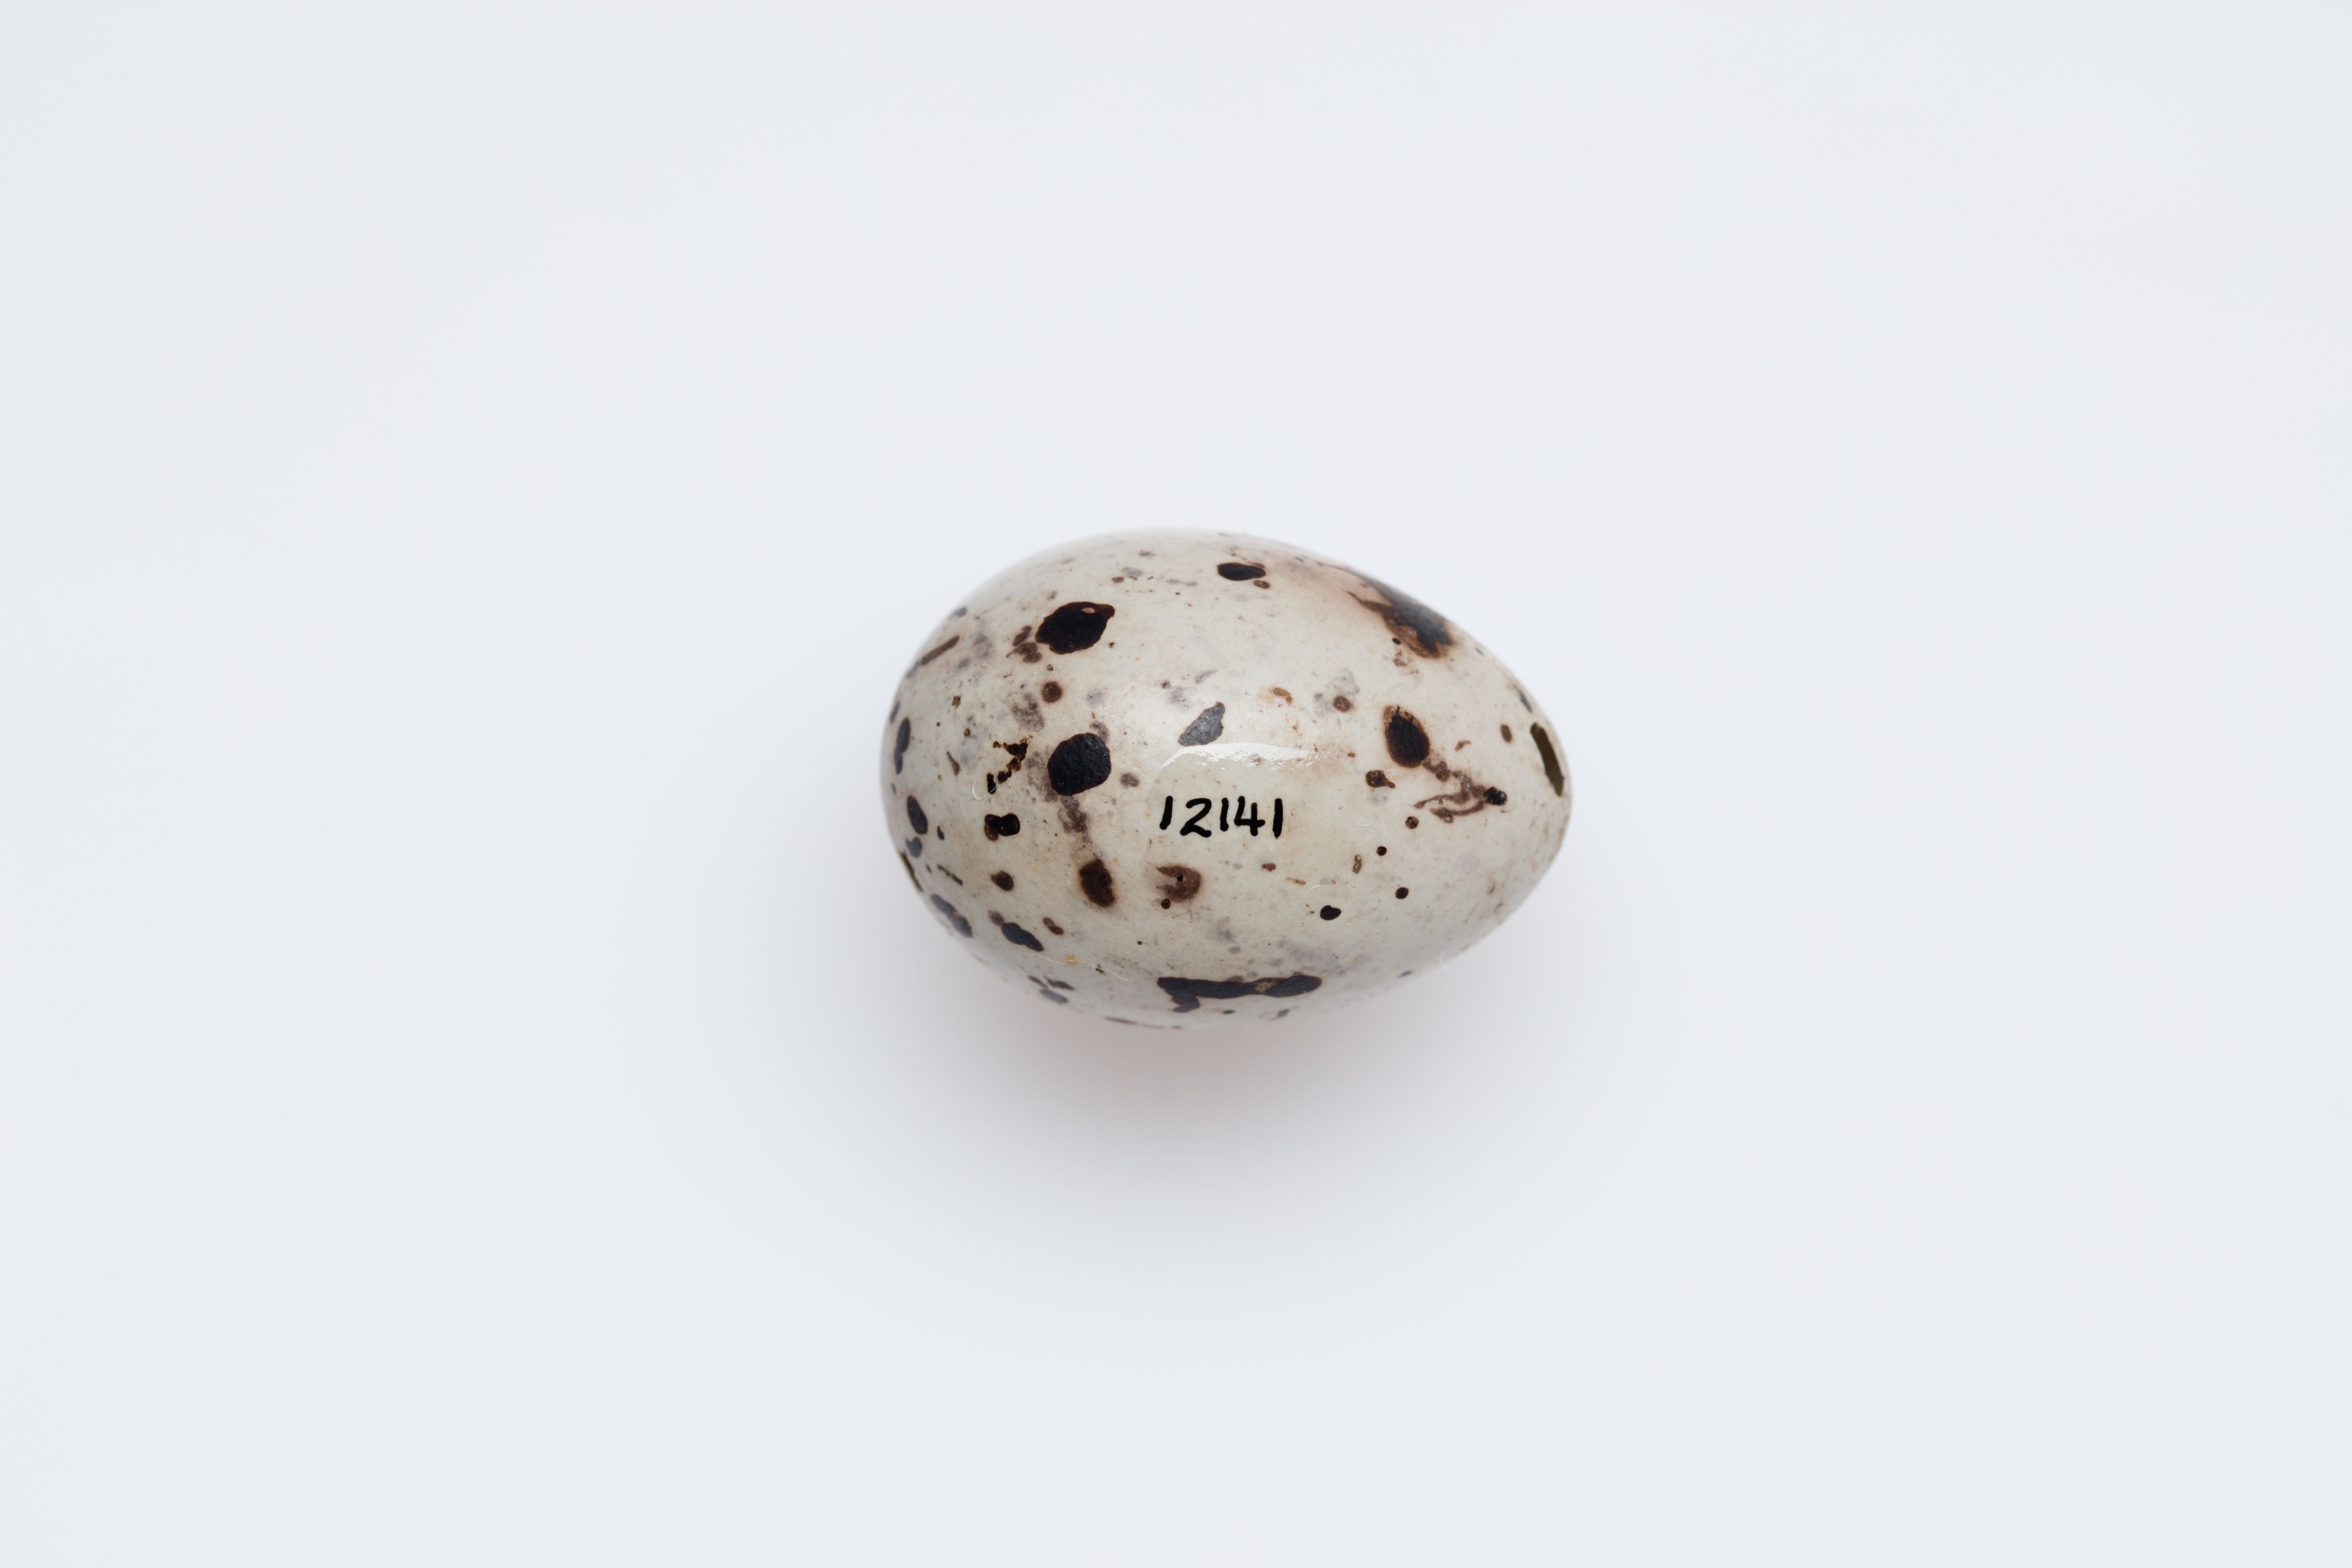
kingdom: Animalia
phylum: Chordata
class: Aves
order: Passeriformes
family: Psophodidae
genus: Psophodes
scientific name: Psophodes olivaceus
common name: Eastern whipbird
